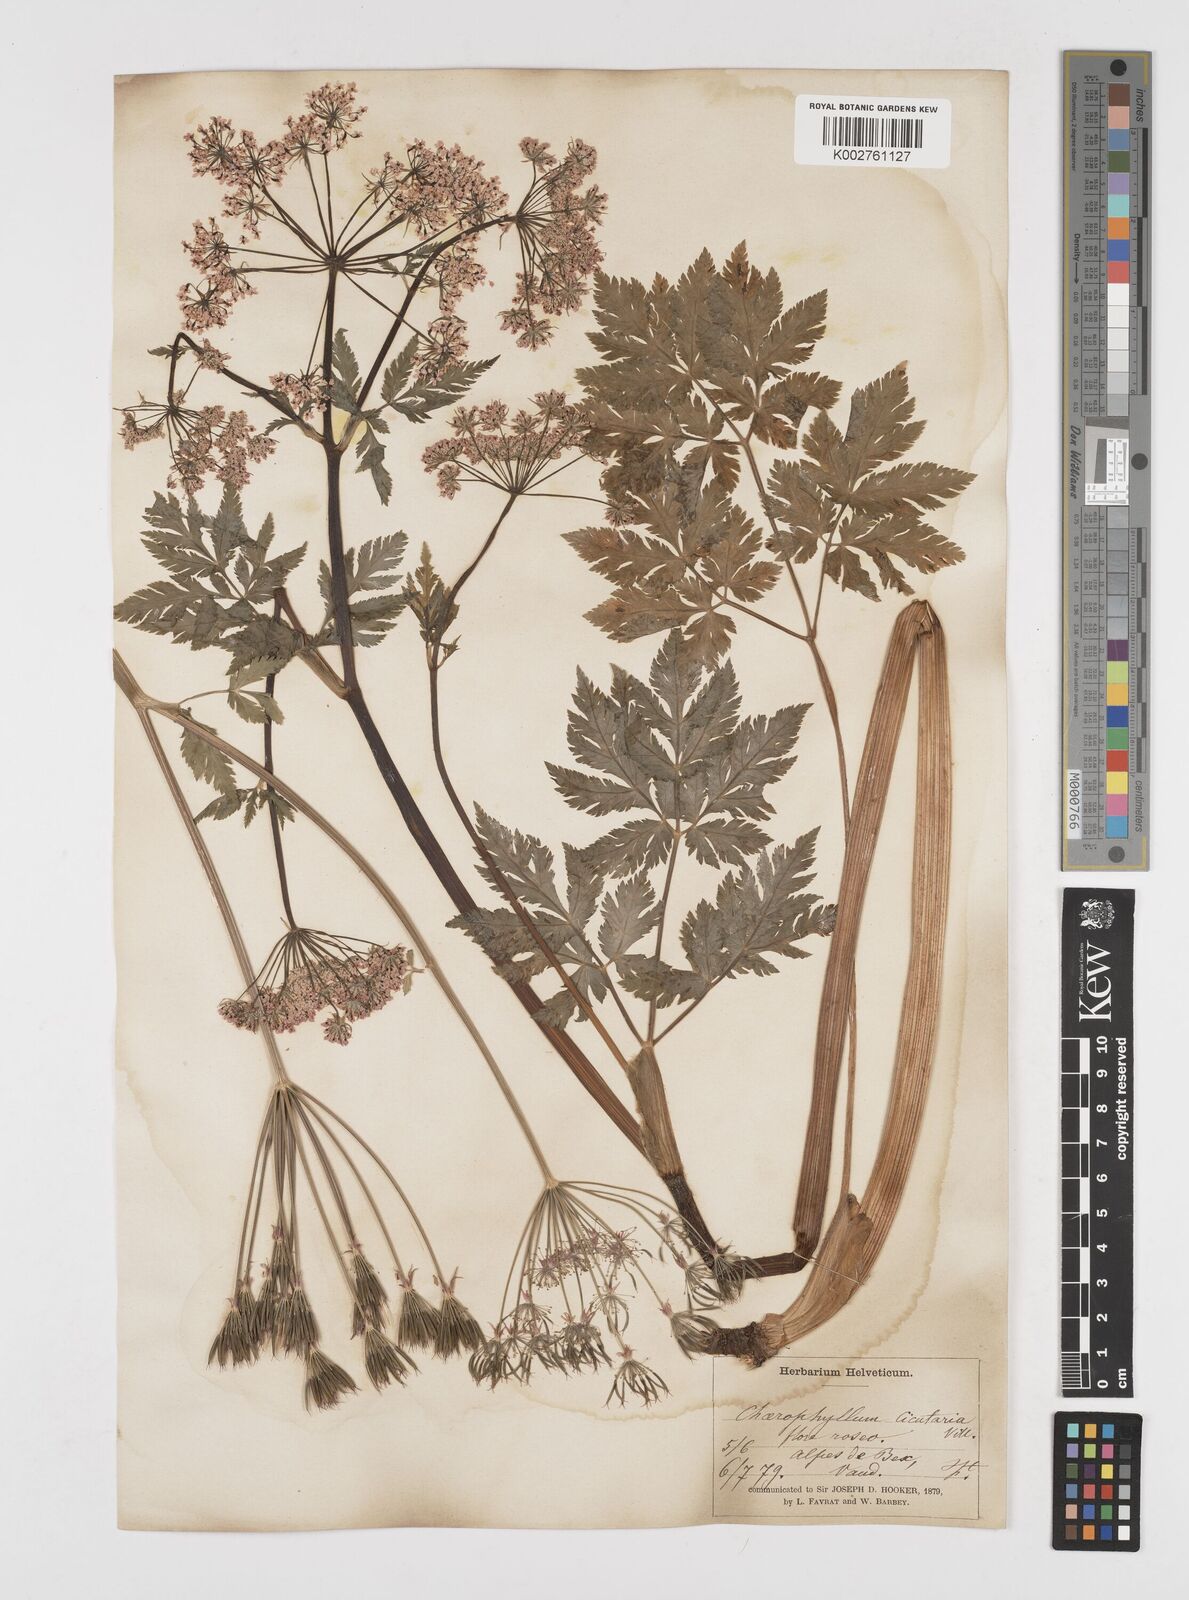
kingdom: Plantae
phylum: Tracheophyta
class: Magnoliopsida
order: Apiales
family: Apiaceae
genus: Chaerophyllum
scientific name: Chaerophyllum hirsutum
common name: Hairy chervil
